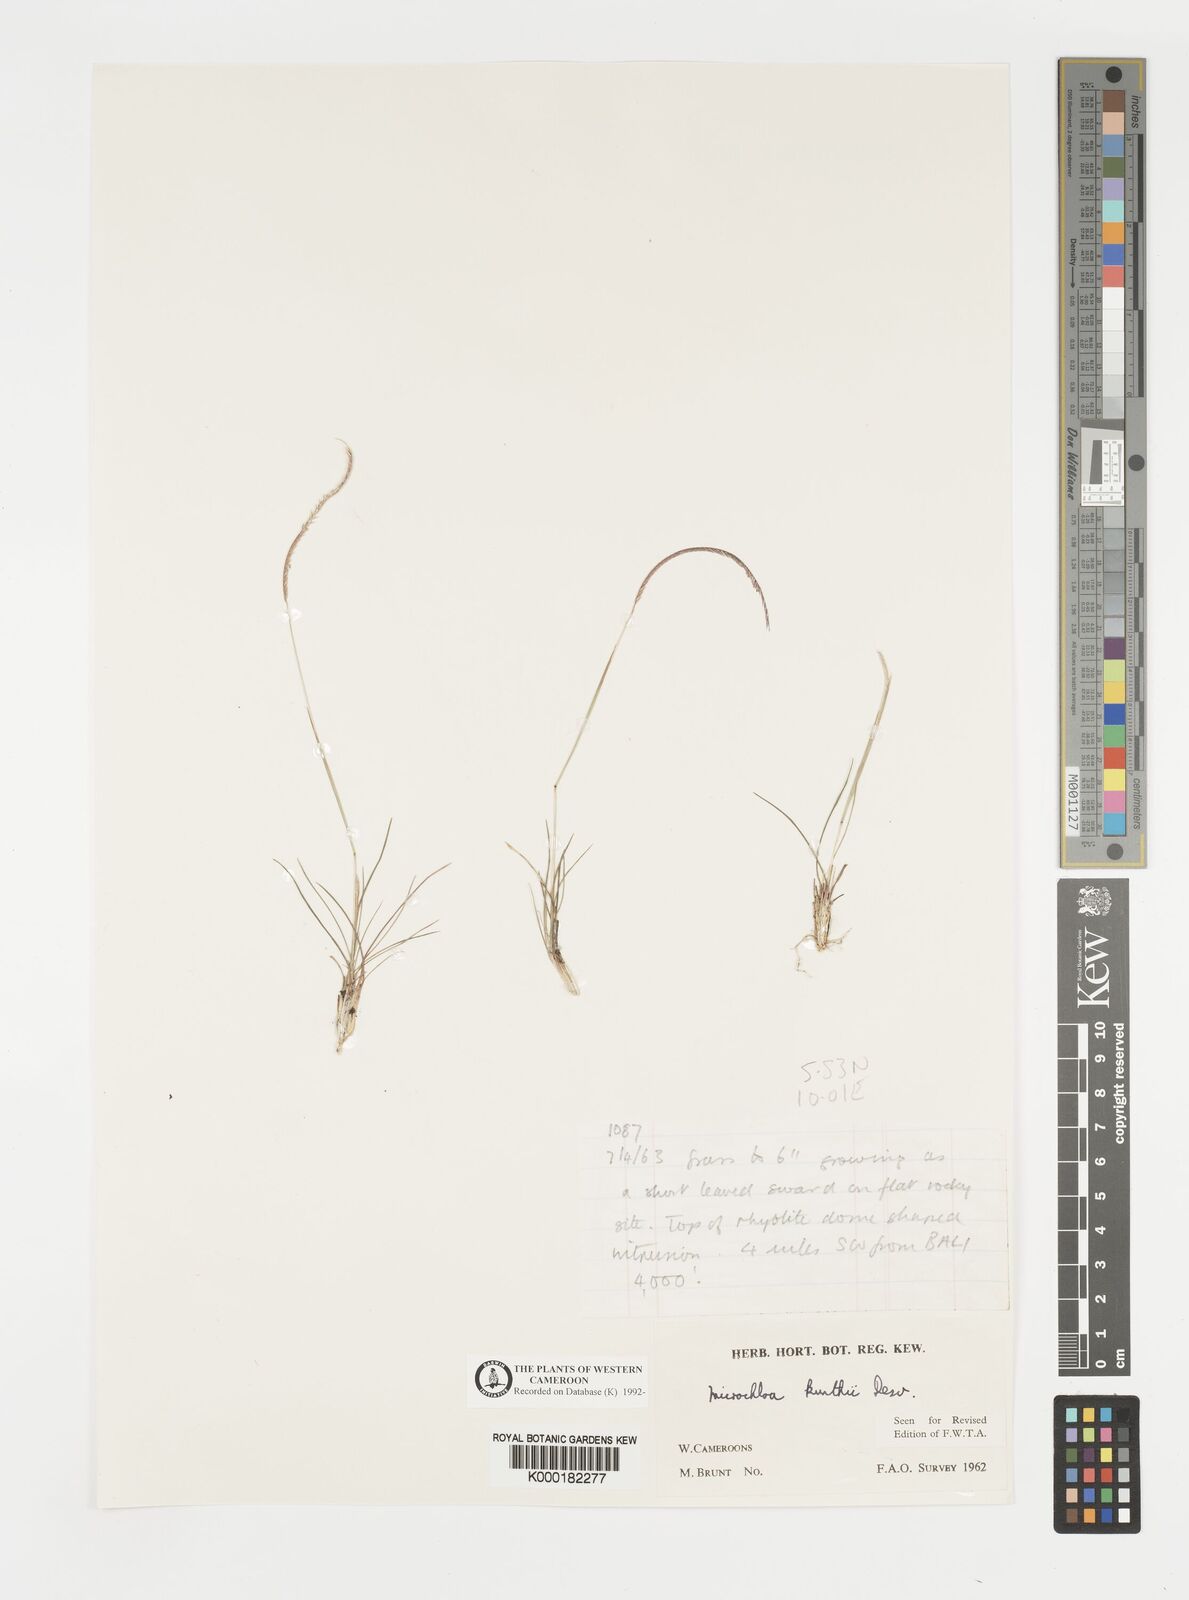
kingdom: Plantae
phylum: Tracheophyta
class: Liliopsida
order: Poales
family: Poaceae
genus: Microchloa
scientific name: Microchloa kunthii
